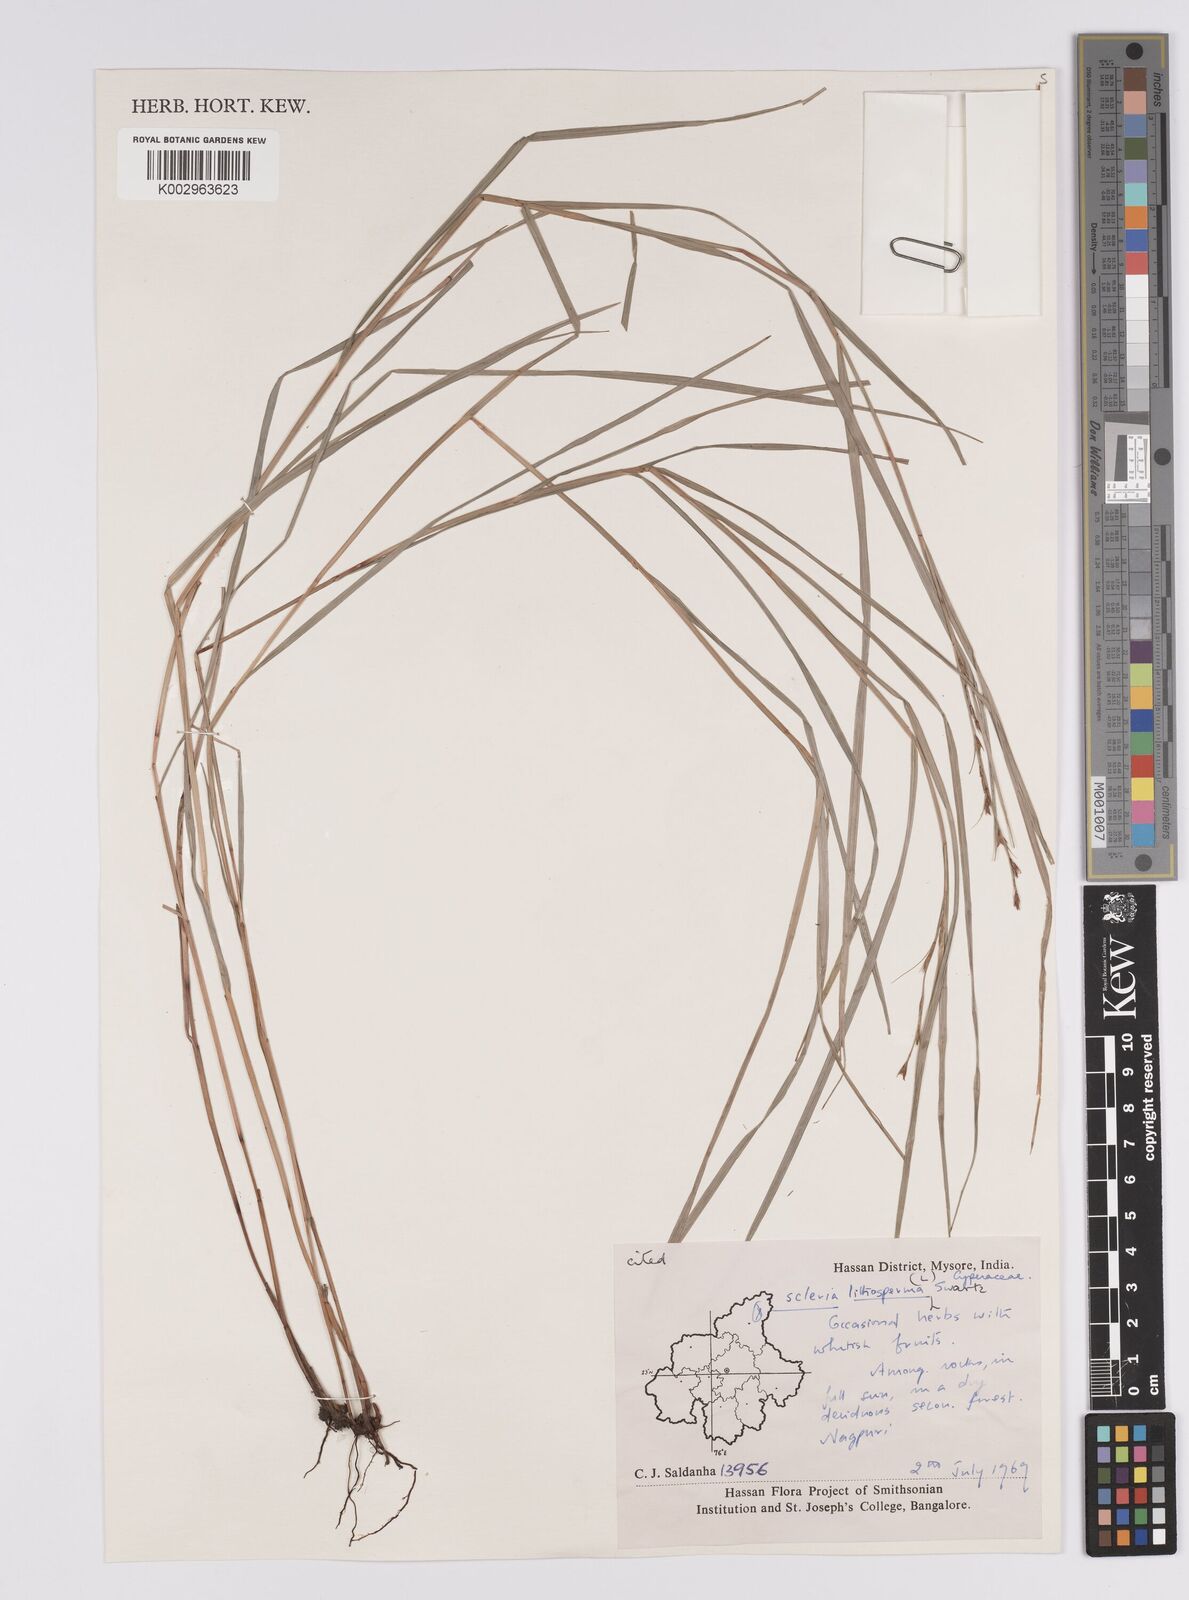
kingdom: Plantae
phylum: Tracheophyta
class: Liliopsida
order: Poales
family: Cyperaceae
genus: Scleria
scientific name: Scleria lithosperma
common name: Florida keys nut-rush
